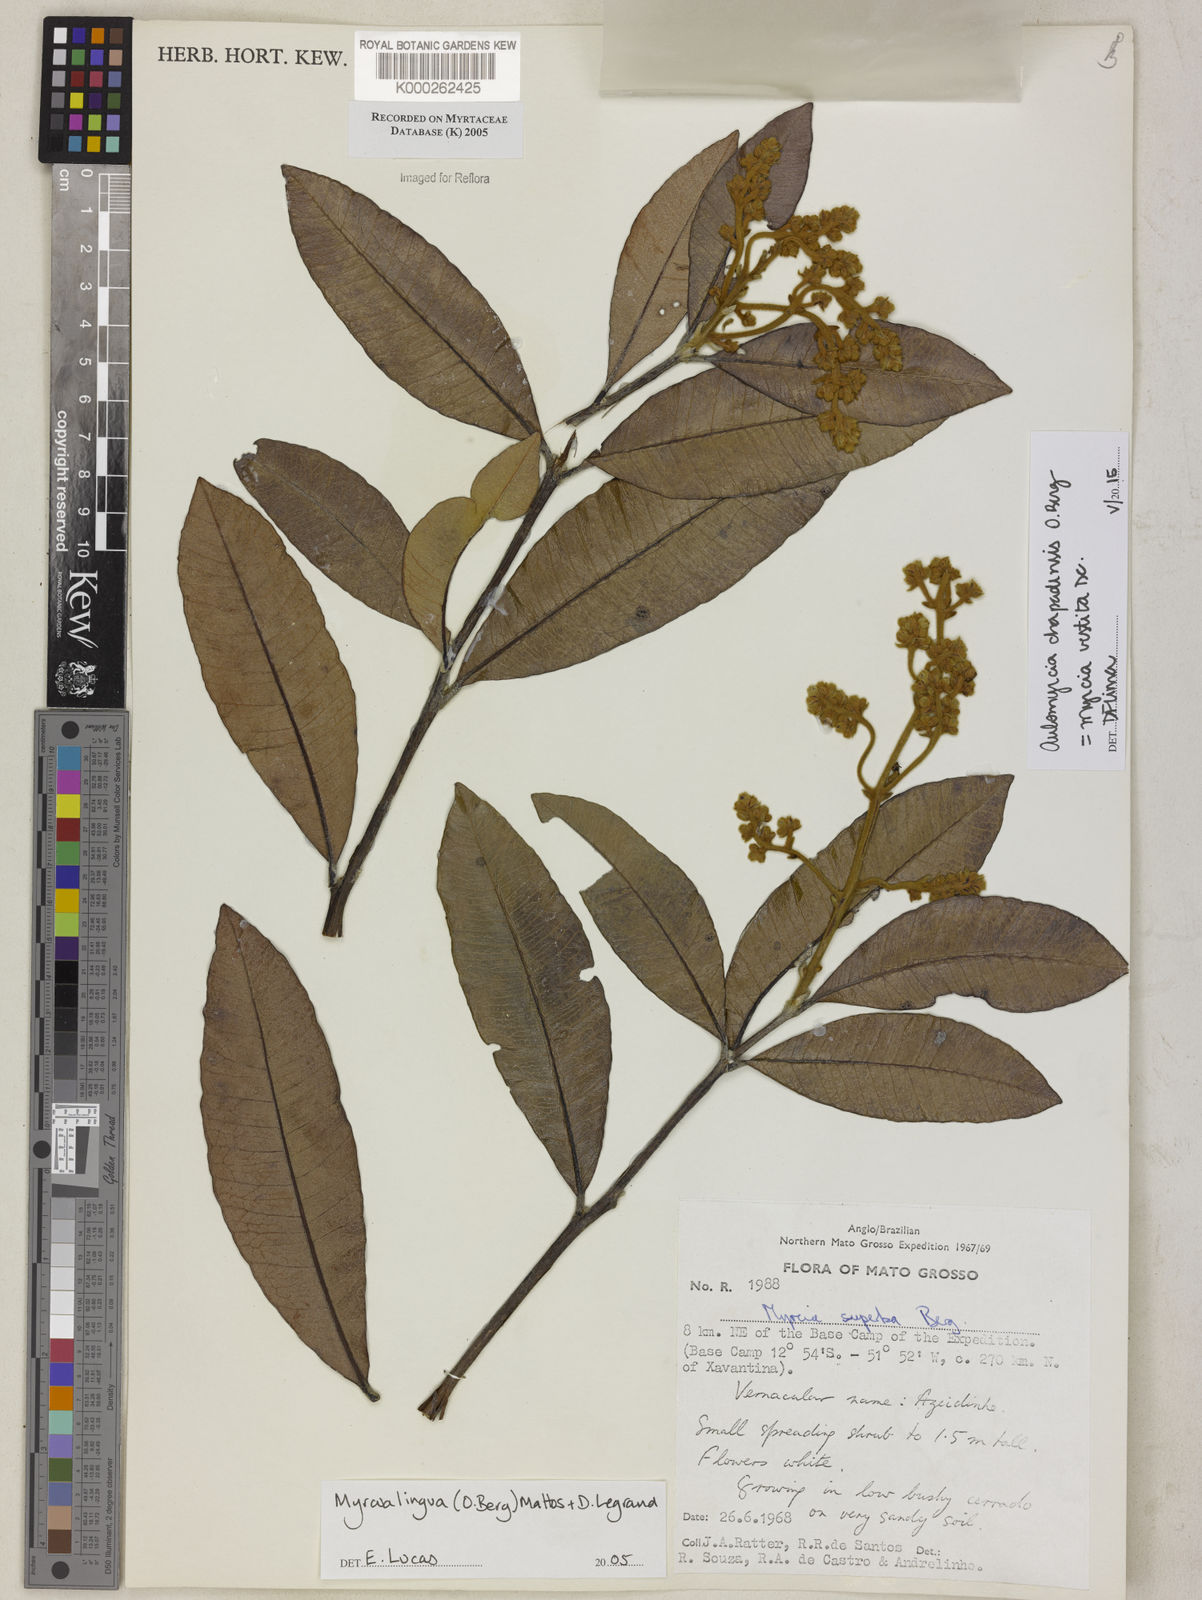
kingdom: Plantae
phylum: Tracheophyta
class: Magnoliopsida
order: Myrtales
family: Myrtaceae
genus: Myrcia
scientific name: Myrcia guianensis
